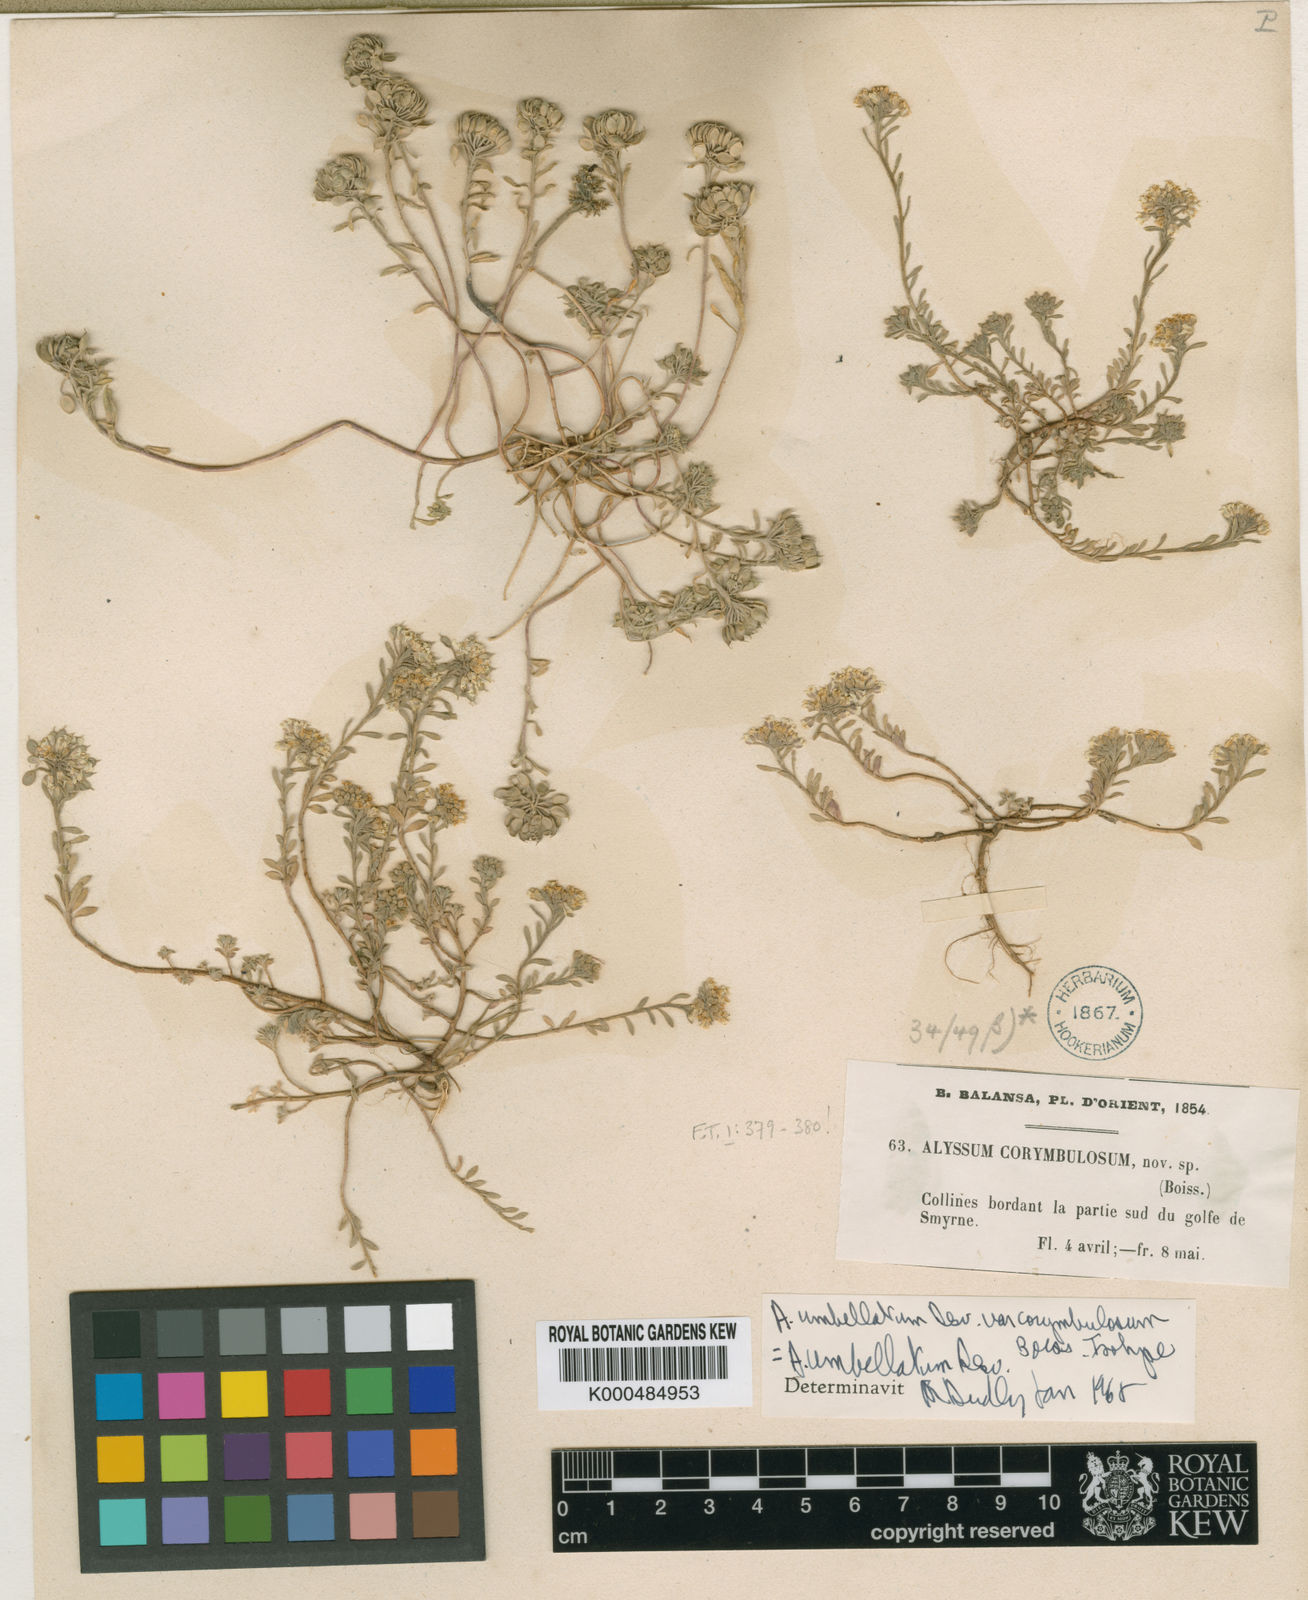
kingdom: Plantae
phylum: Tracheophyta
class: Magnoliopsida
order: Brassicales
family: Brassicaceae
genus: Alyssum
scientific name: Alyssum umbellatum
